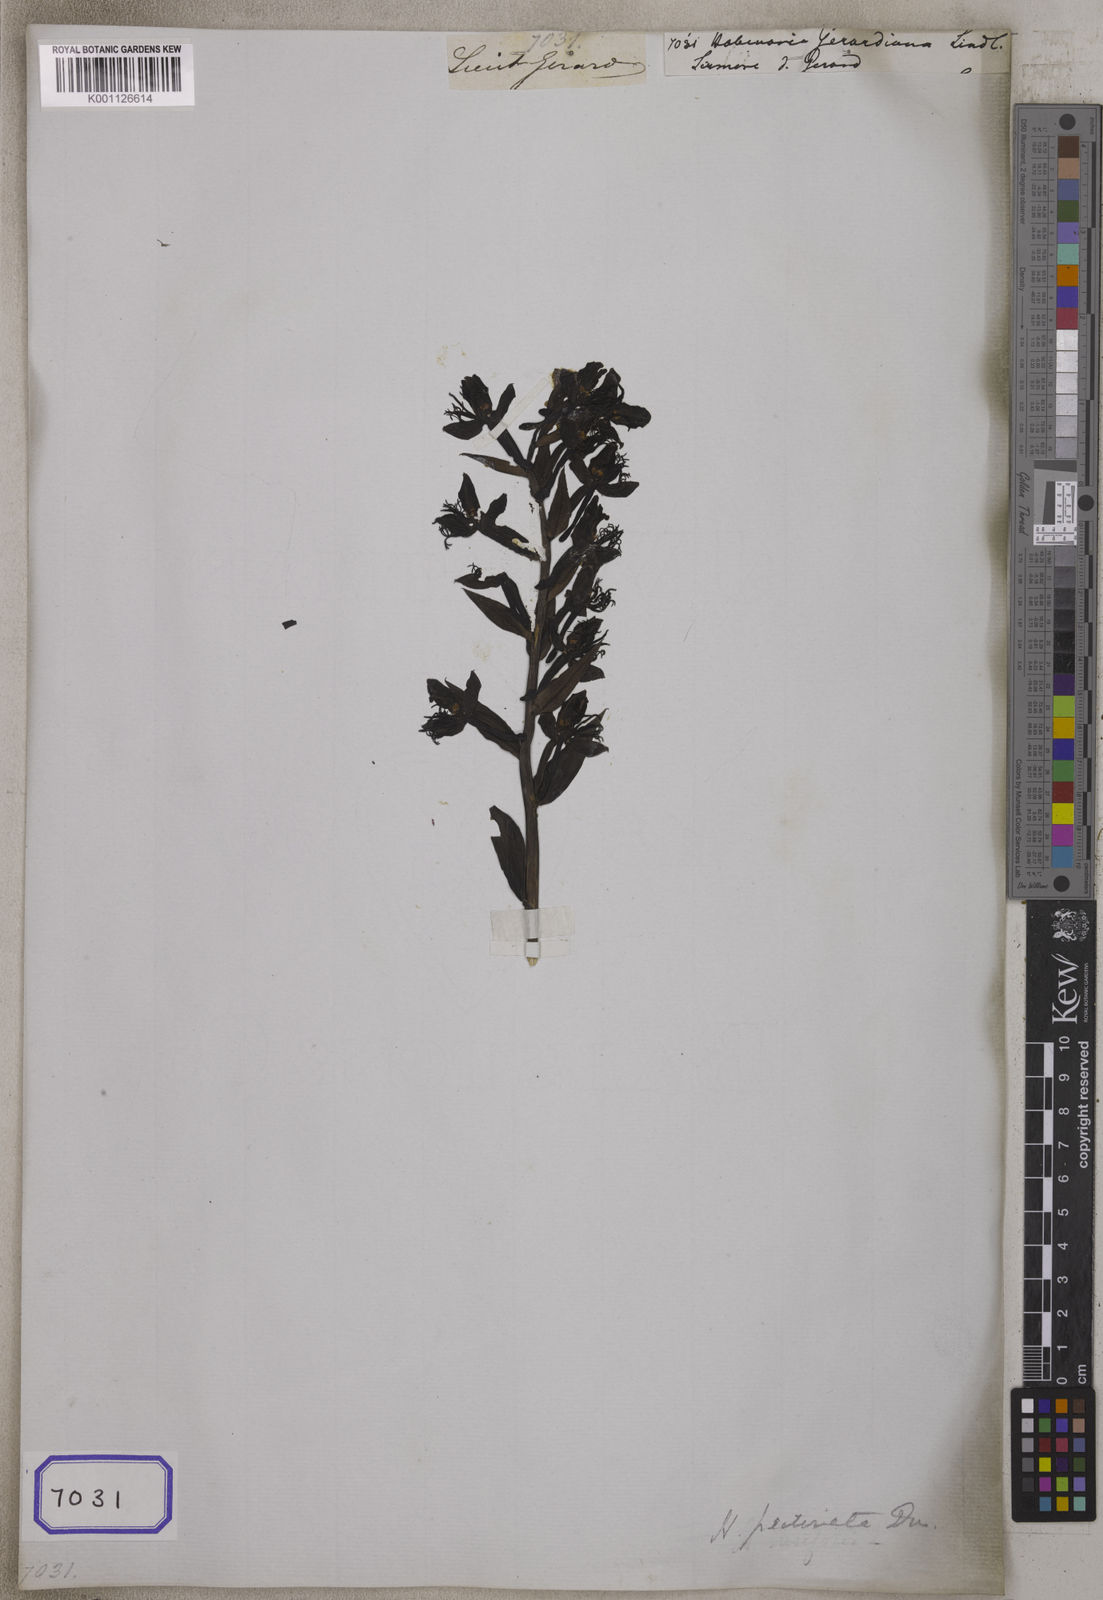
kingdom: Plantae
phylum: Tracheophyta
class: Liliopsida
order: Asparagales
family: Orchidaceae
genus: Habenaria
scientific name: Habenaria
